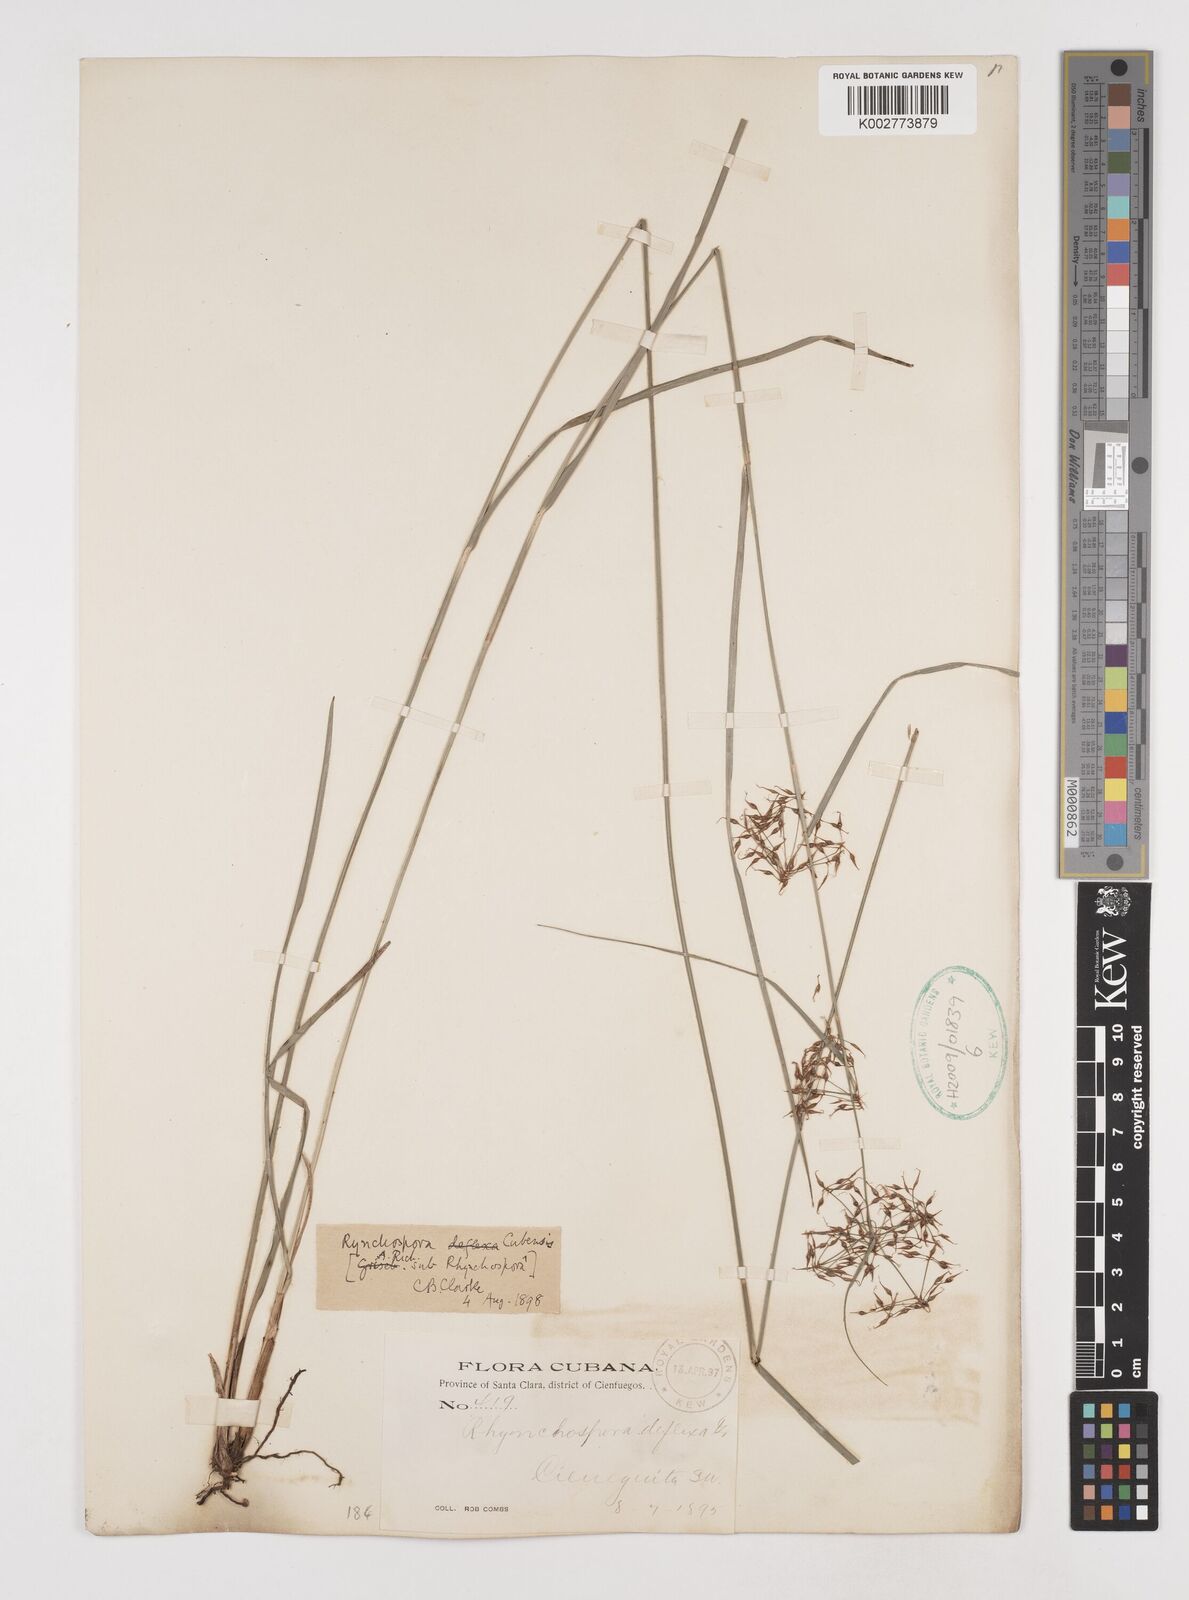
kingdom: Plantae
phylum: Tracheophyta
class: Liliopsida
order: Poales
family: Cyperaceae
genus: Rhynchospora
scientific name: Rhynchospora cubensis
